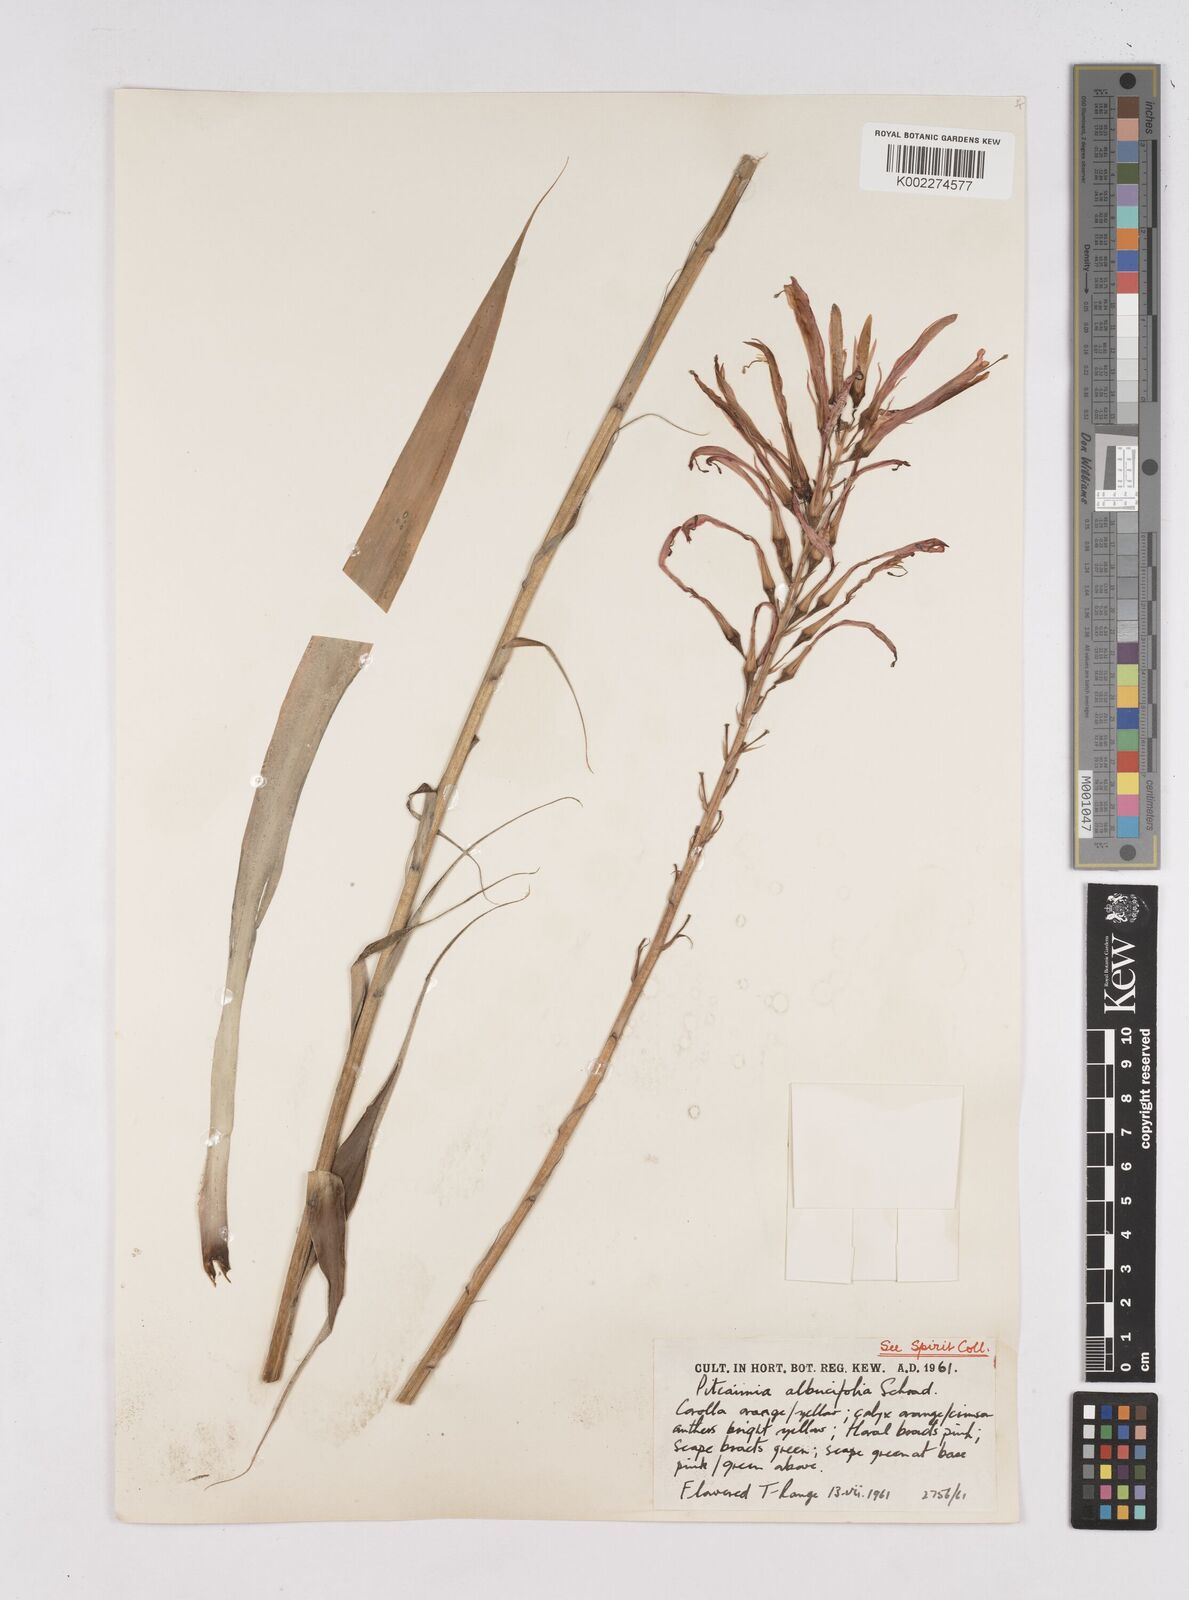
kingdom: Plantae
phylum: Tracheophyta
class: Liliopsida
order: Poales
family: Bromeliaceae
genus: Pitcairnia
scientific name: Pitcairnia spicata
